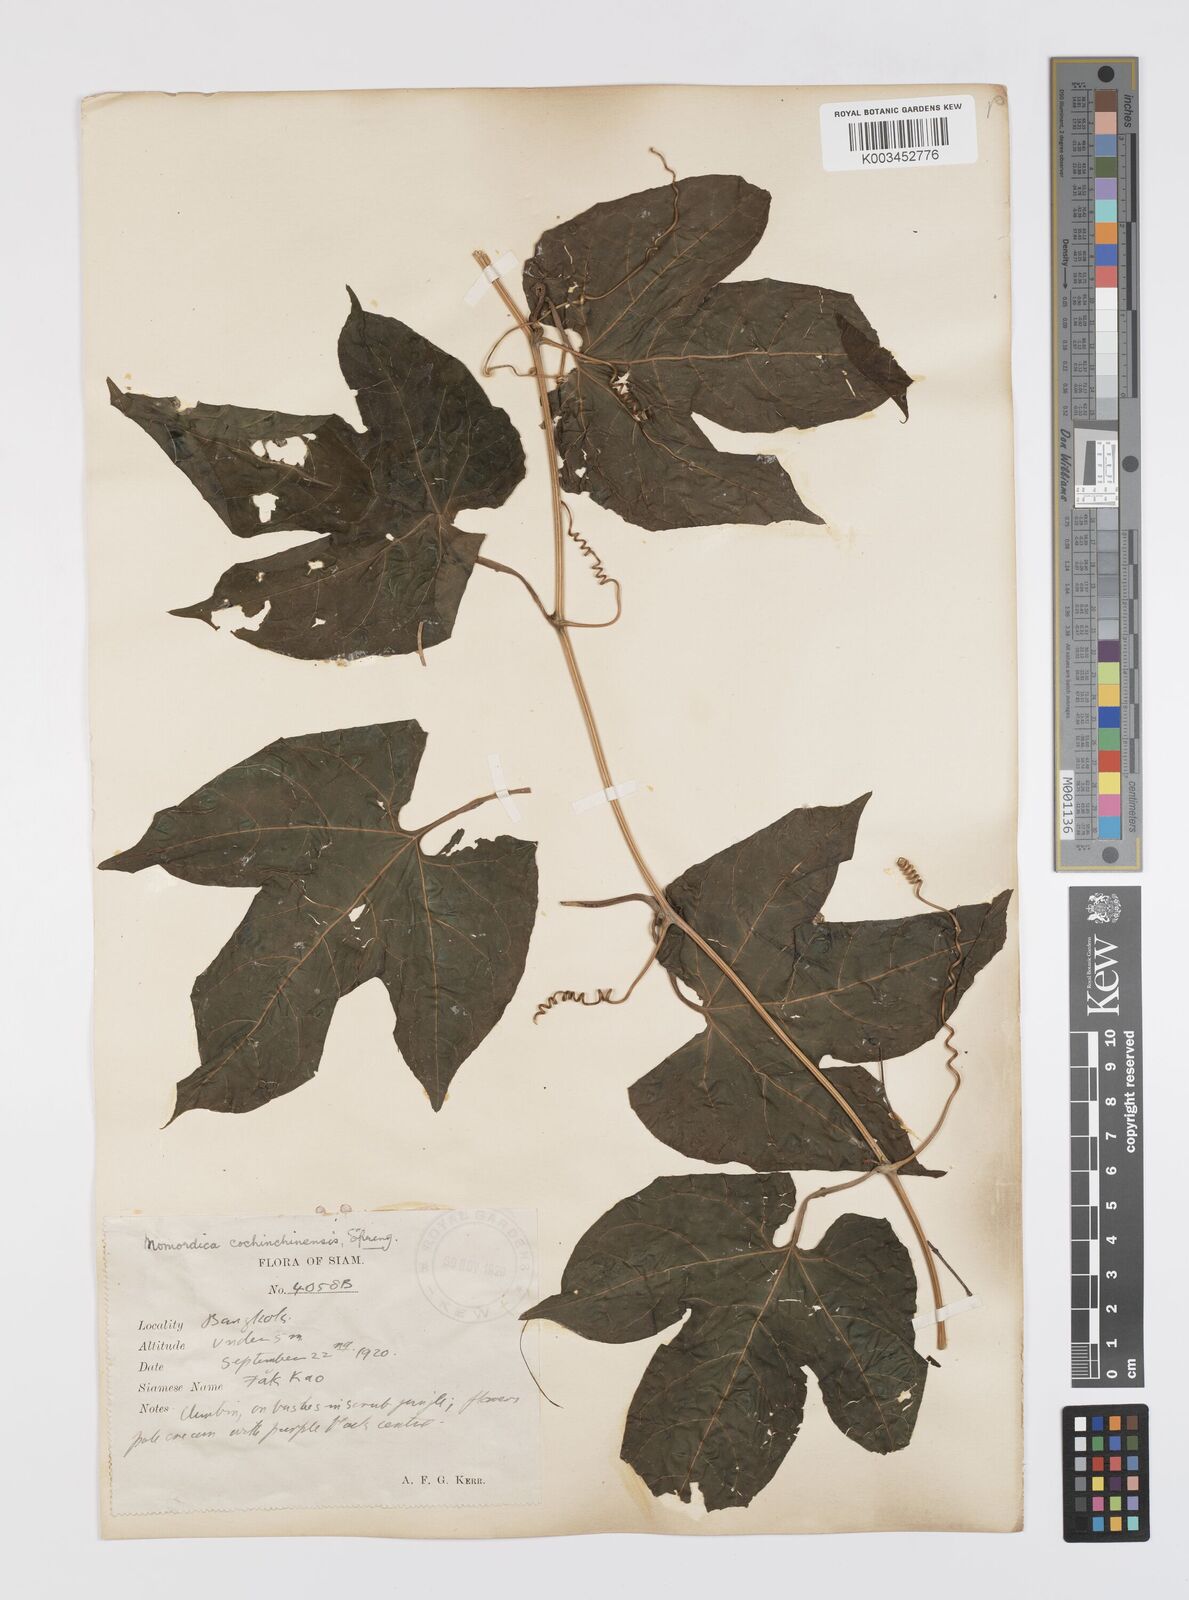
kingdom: Plantae
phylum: Tracheophyta
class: Magnoliopsida
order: Cucurbitales
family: Cucurbitaceae
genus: Momordica
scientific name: Momordica cochinchinensis
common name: Chinese bitter-cucumber
